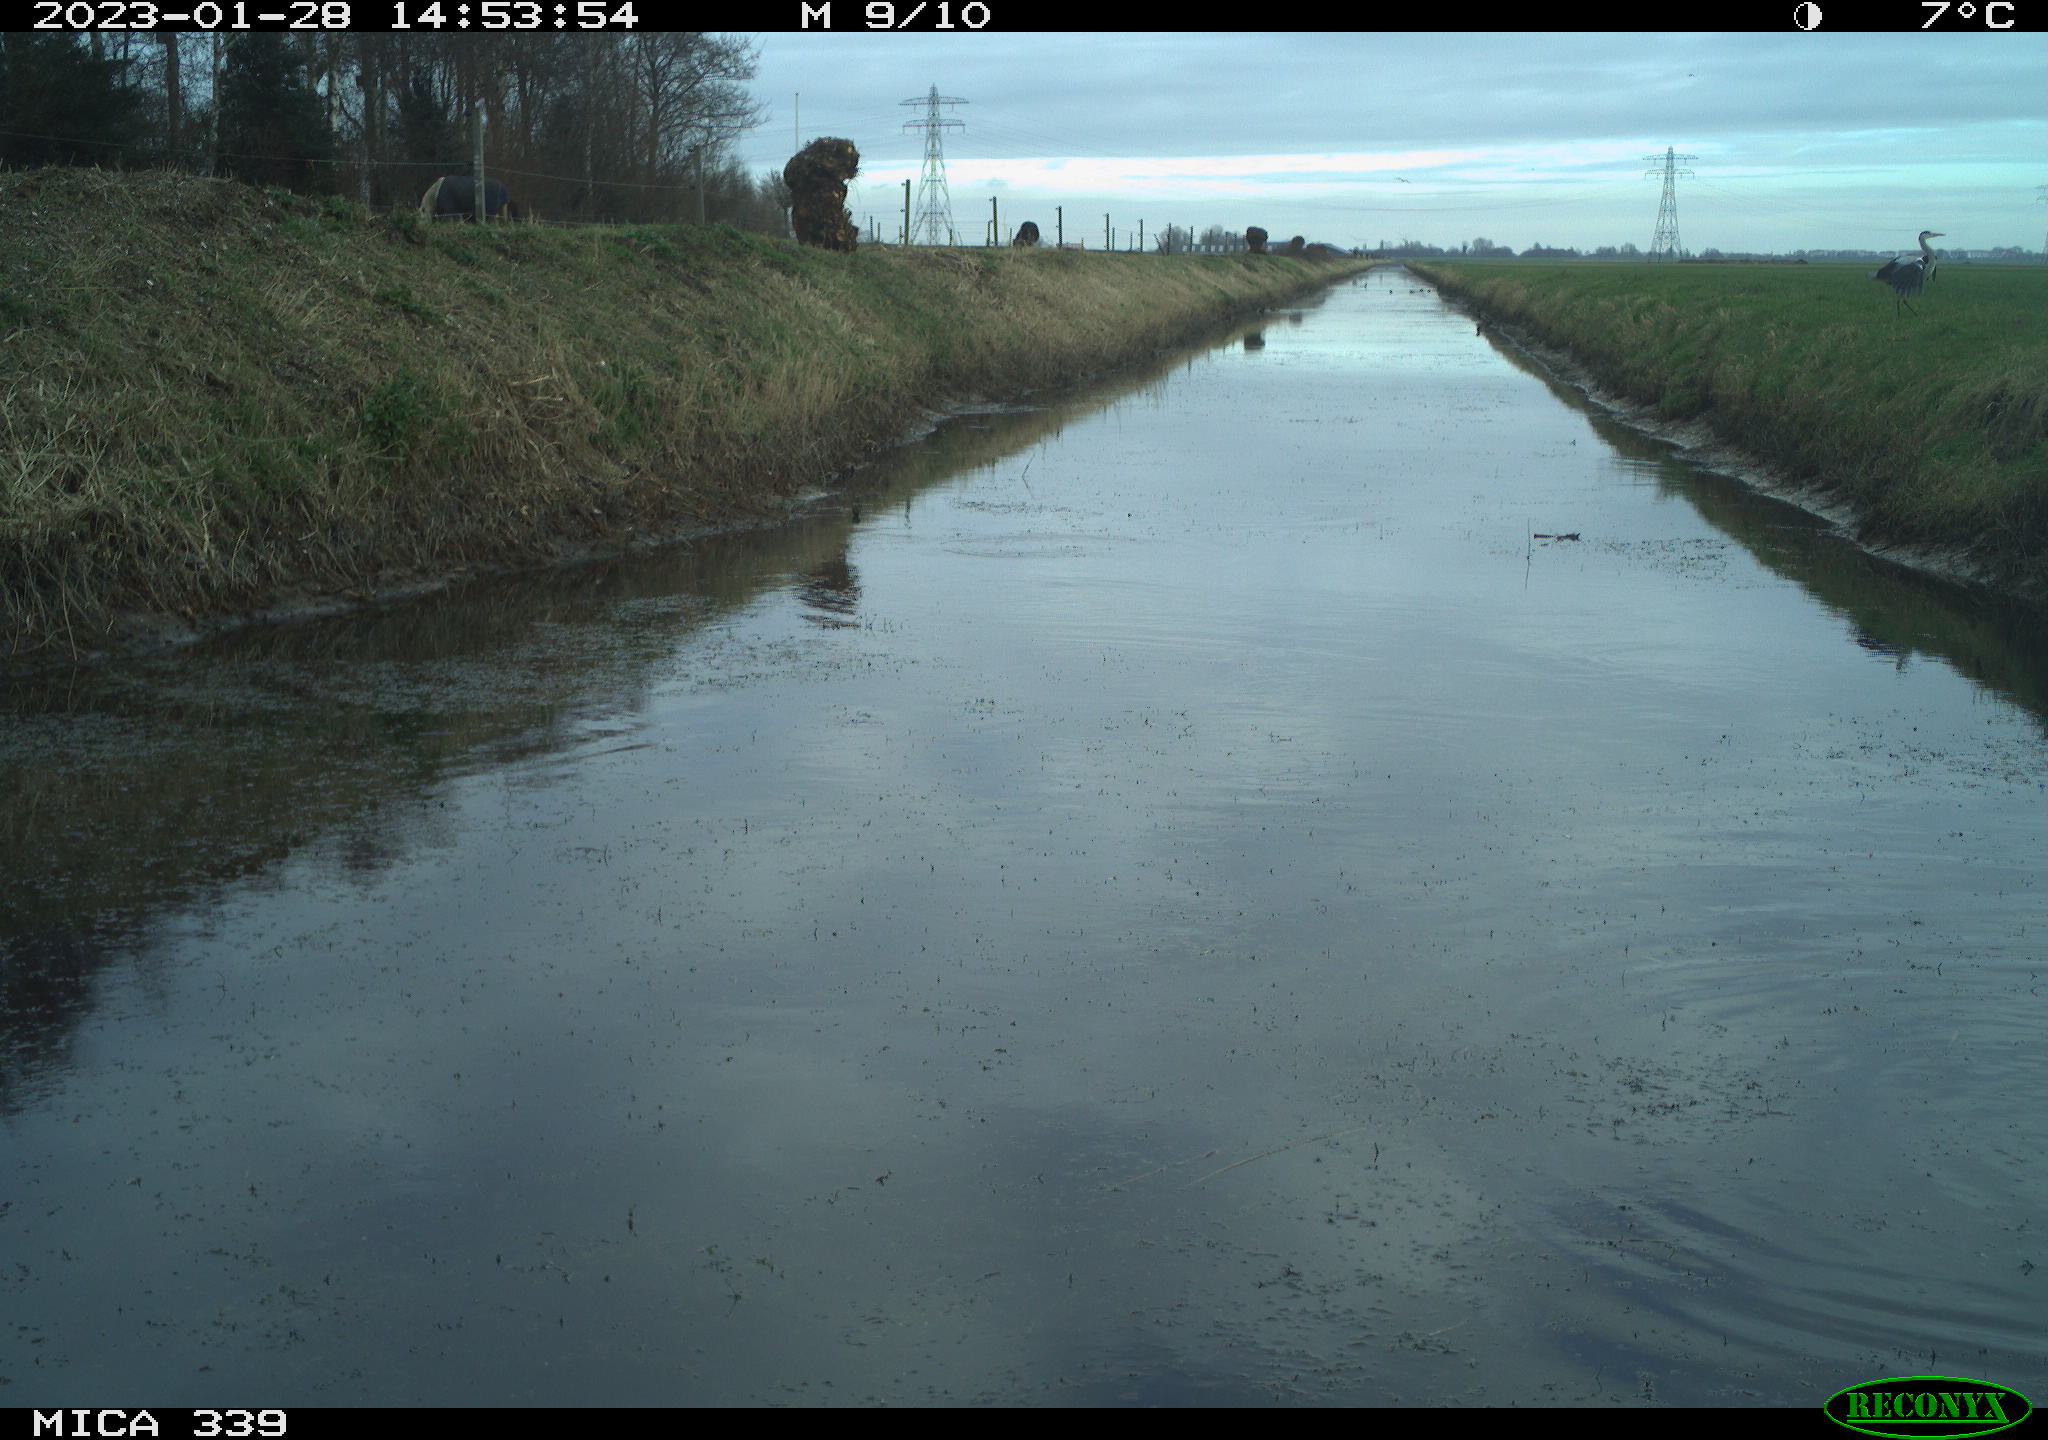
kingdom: Animalia
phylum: Chordata
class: Aves
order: Pelecaniformes
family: Ardeidae
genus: Ardea
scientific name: Ardea cinerea
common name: Grey heron
